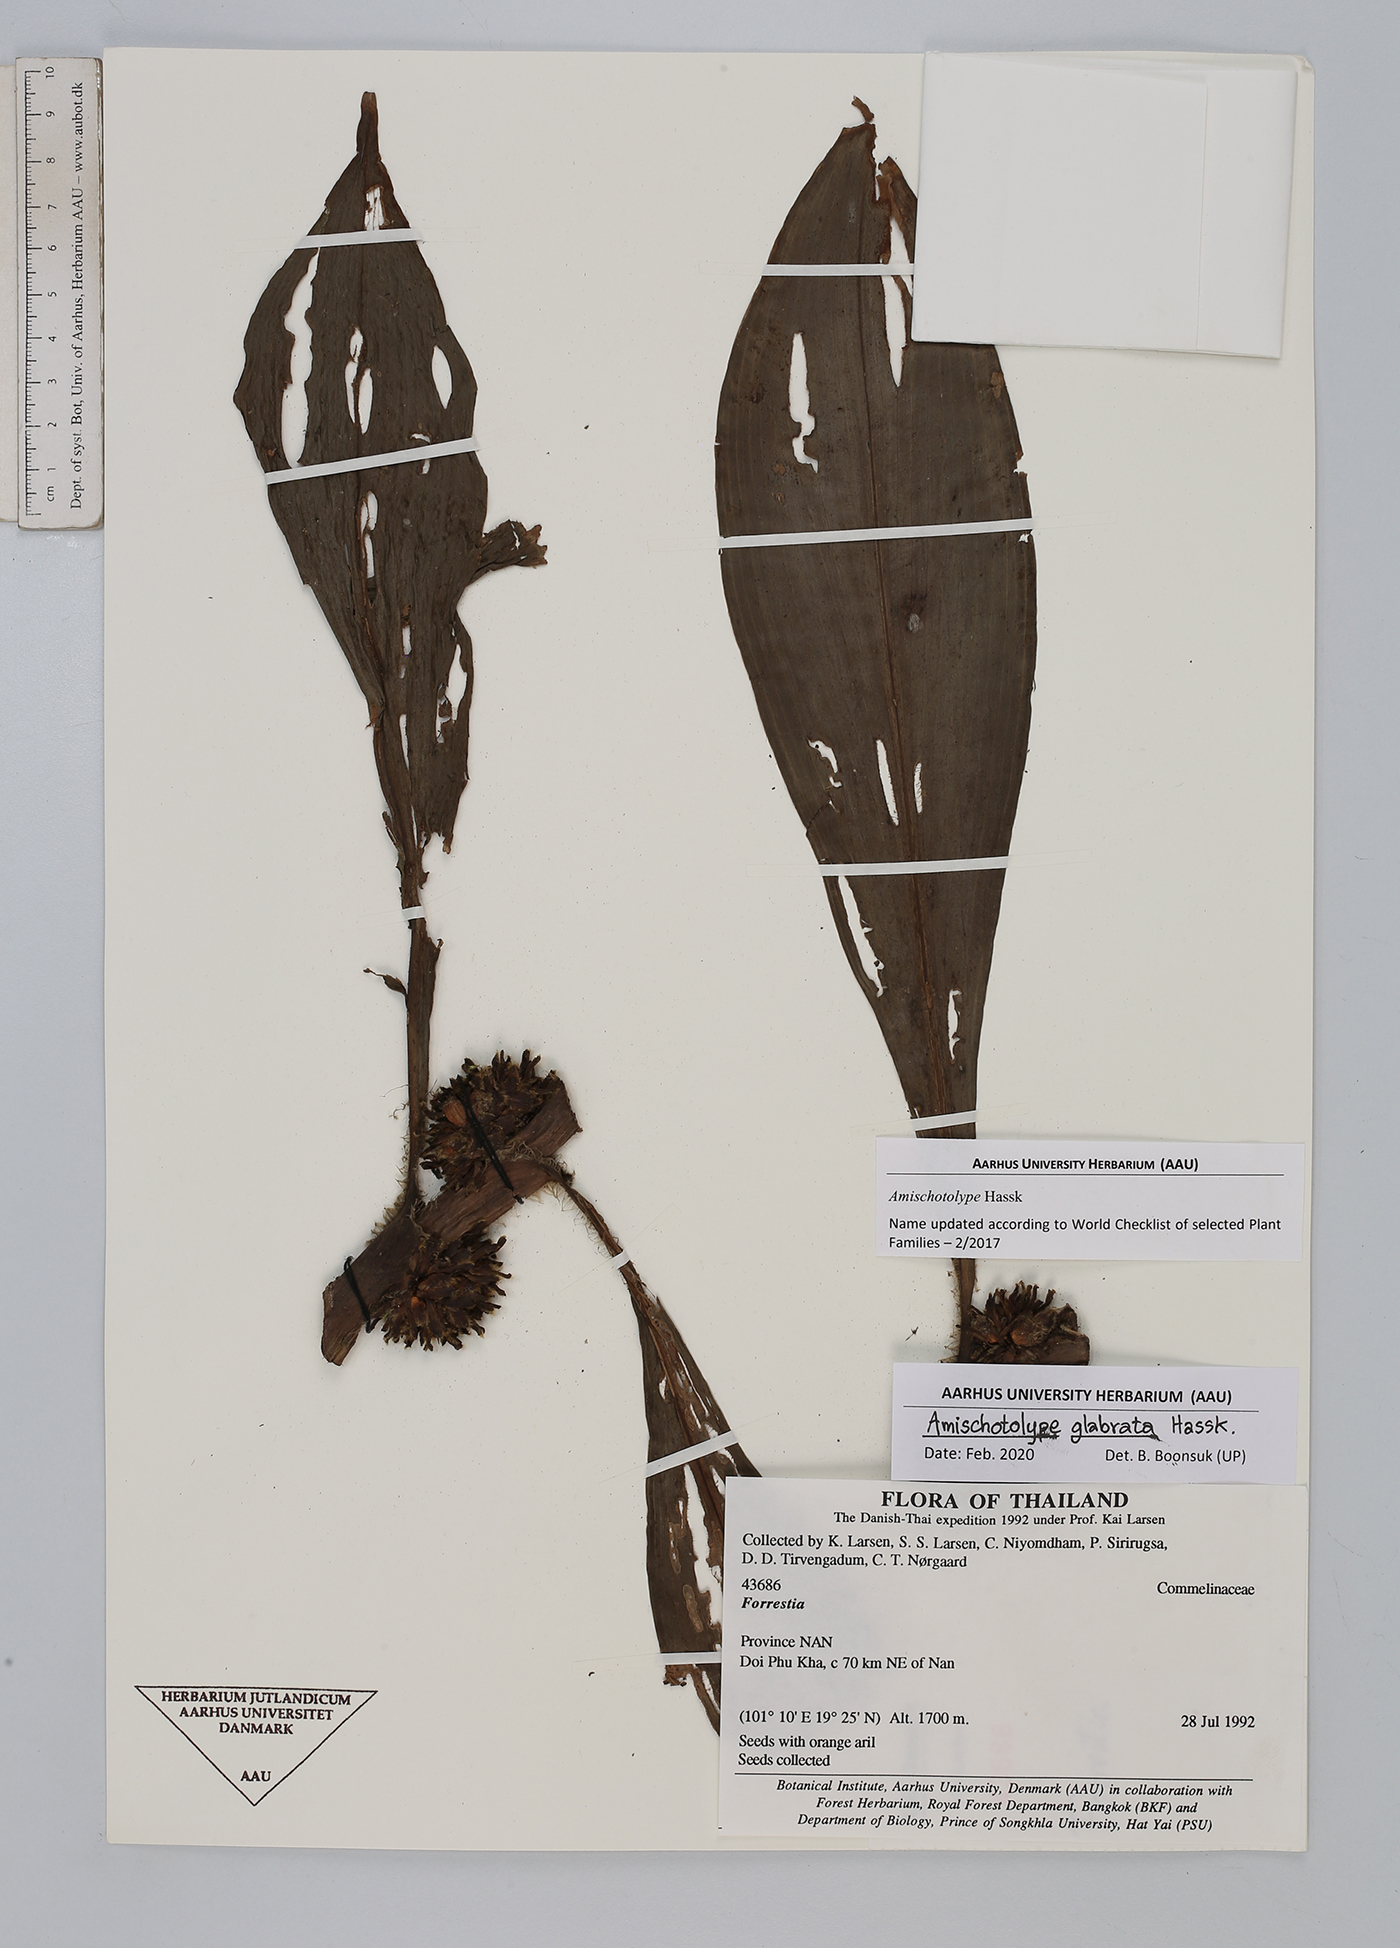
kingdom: Plantae
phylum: Tracheophyta
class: Liliopsida
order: Commelinales
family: Commelinaceae
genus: Amischotolype
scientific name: Amischotolype glabrata
